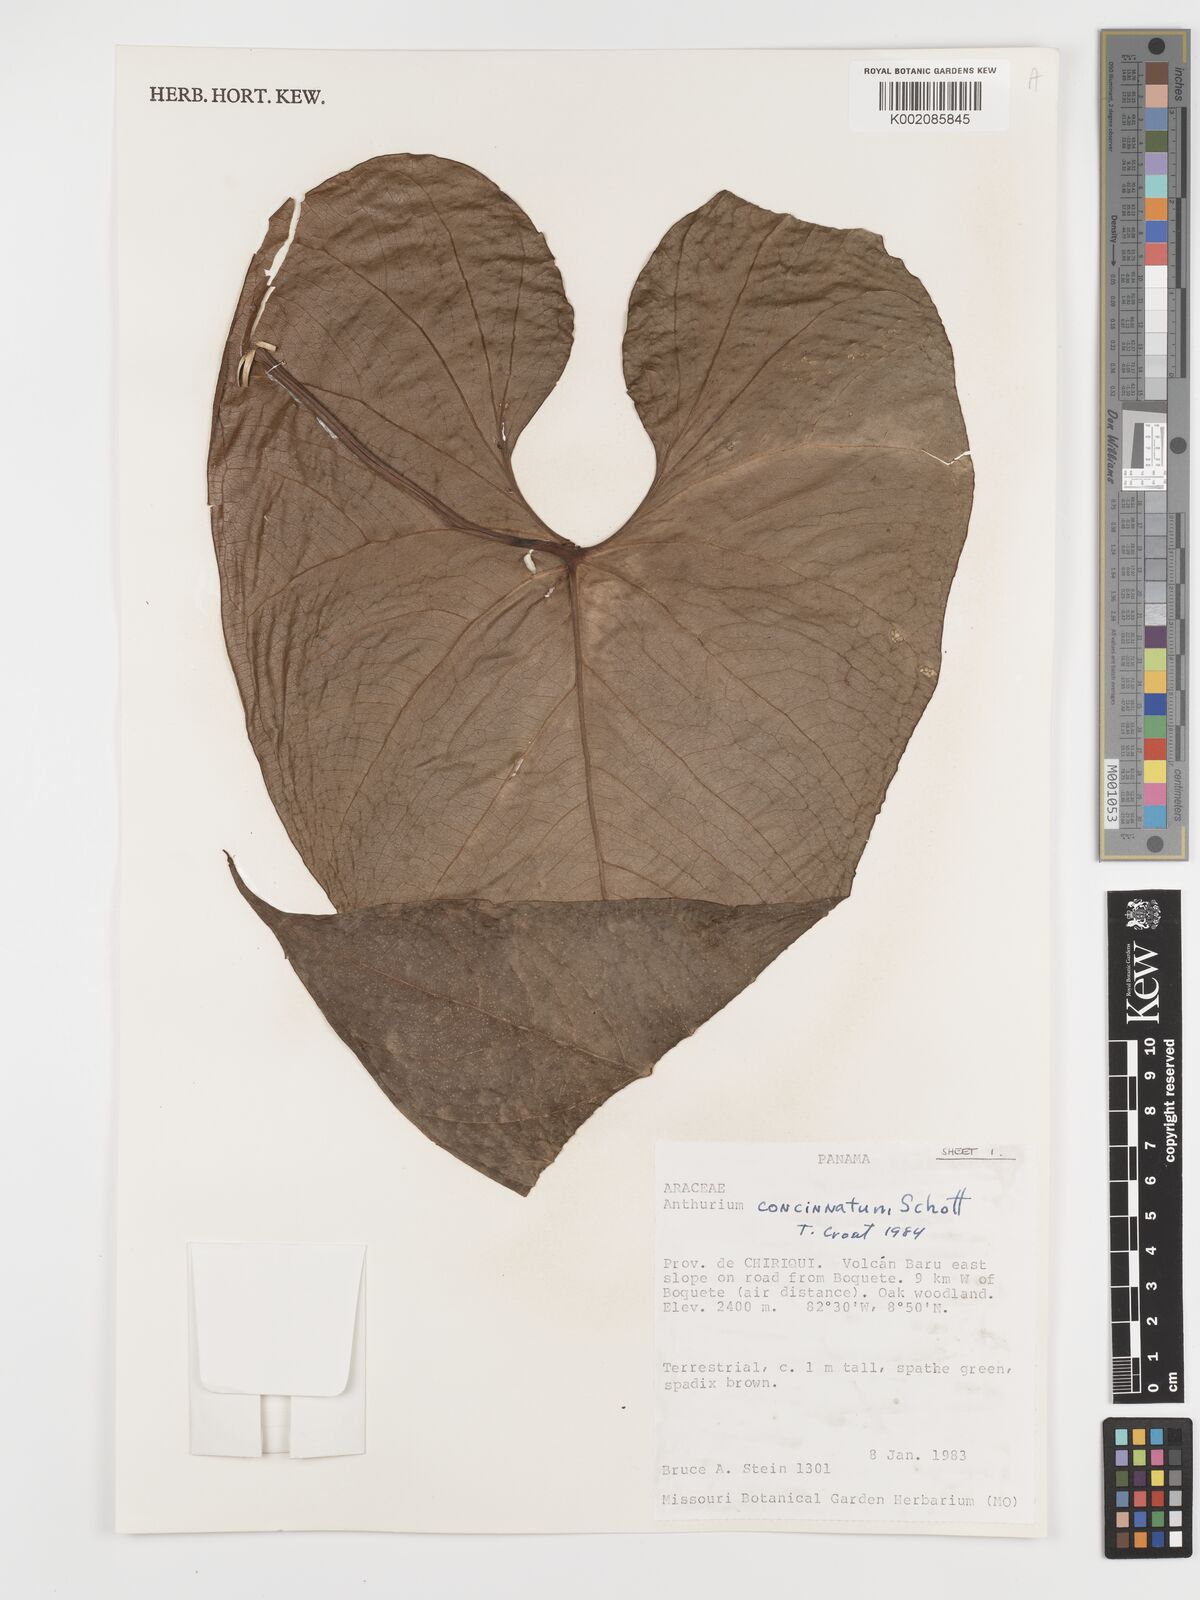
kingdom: Plantae
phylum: Tracheophyta
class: Liliopsida
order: Alismatales
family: Araceae
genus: Anthurium
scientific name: Anthurium concinnatum
